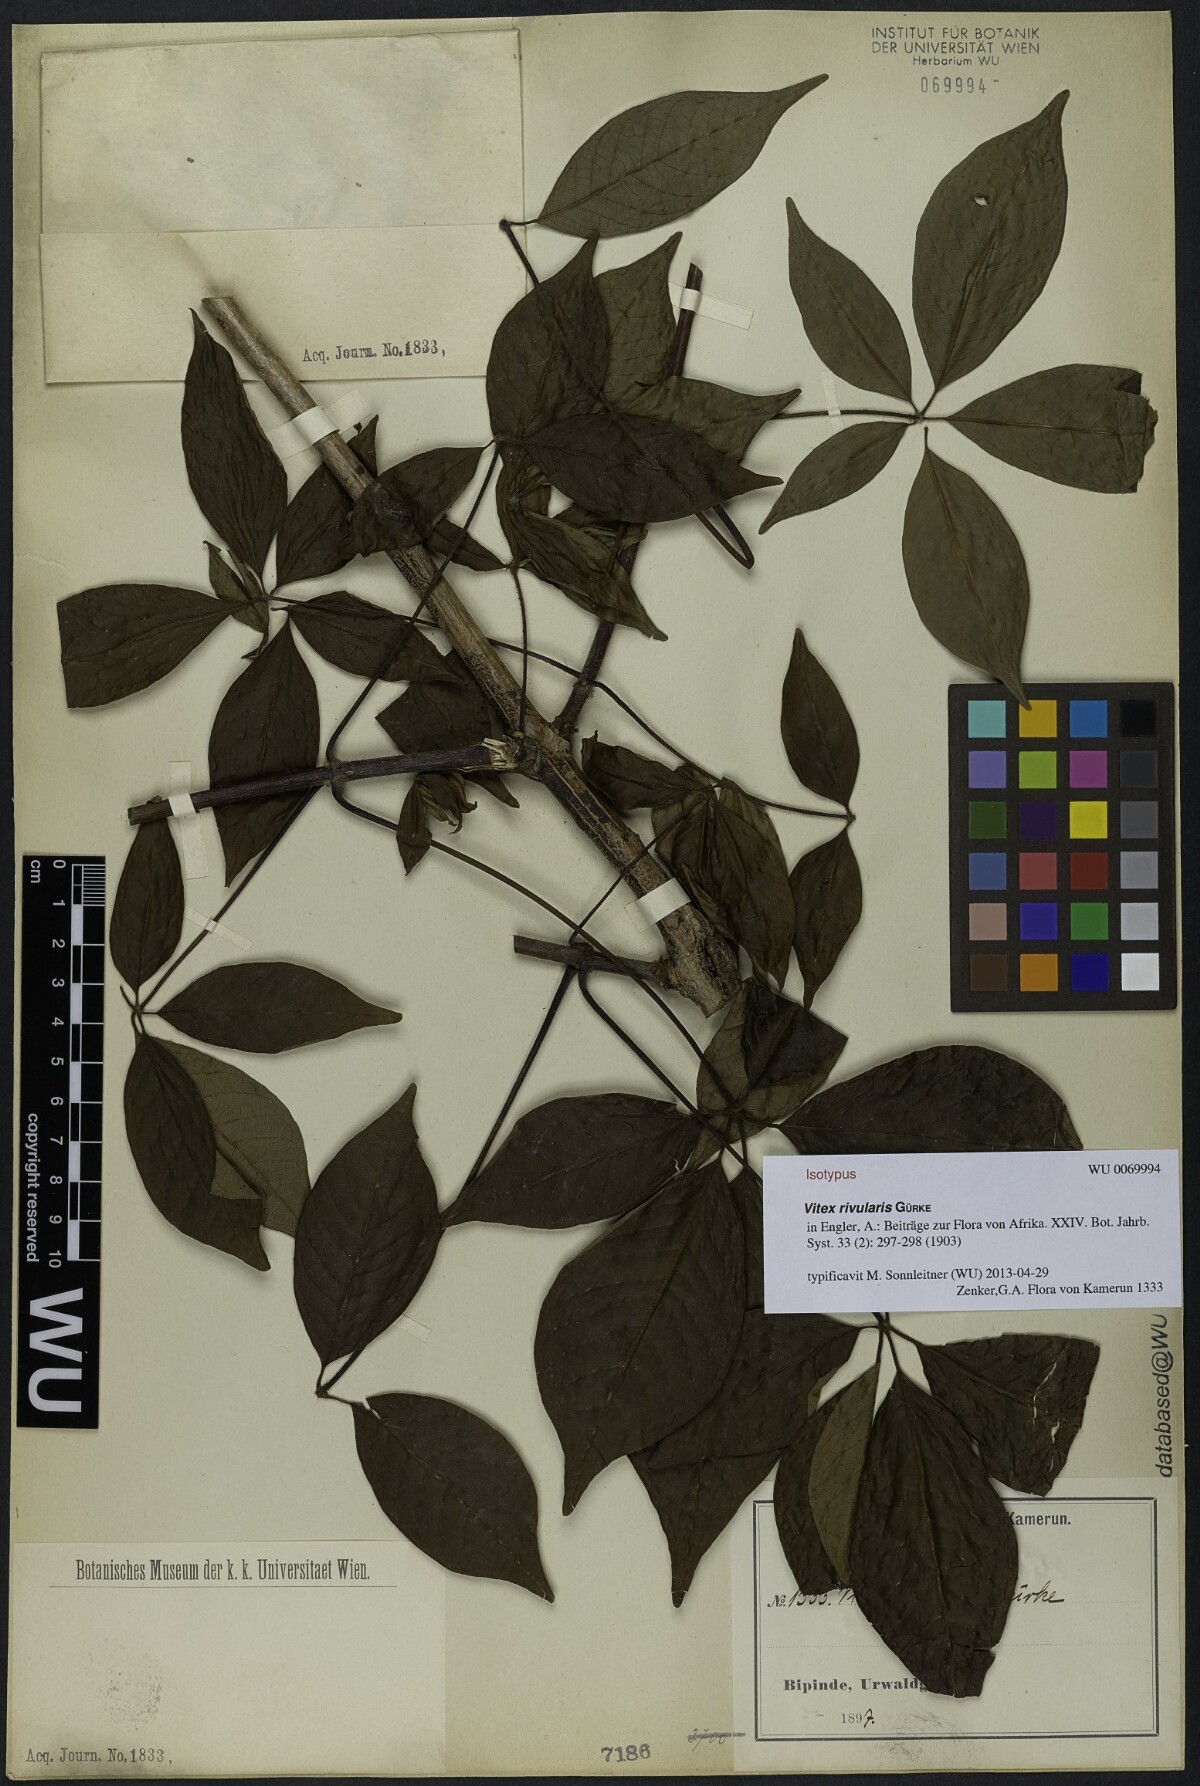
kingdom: Plantae
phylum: Tracheophyta
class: Magnoliopsida
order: Lamiales
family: Lamiaceae
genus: Vitex
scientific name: Vitex rivularis
